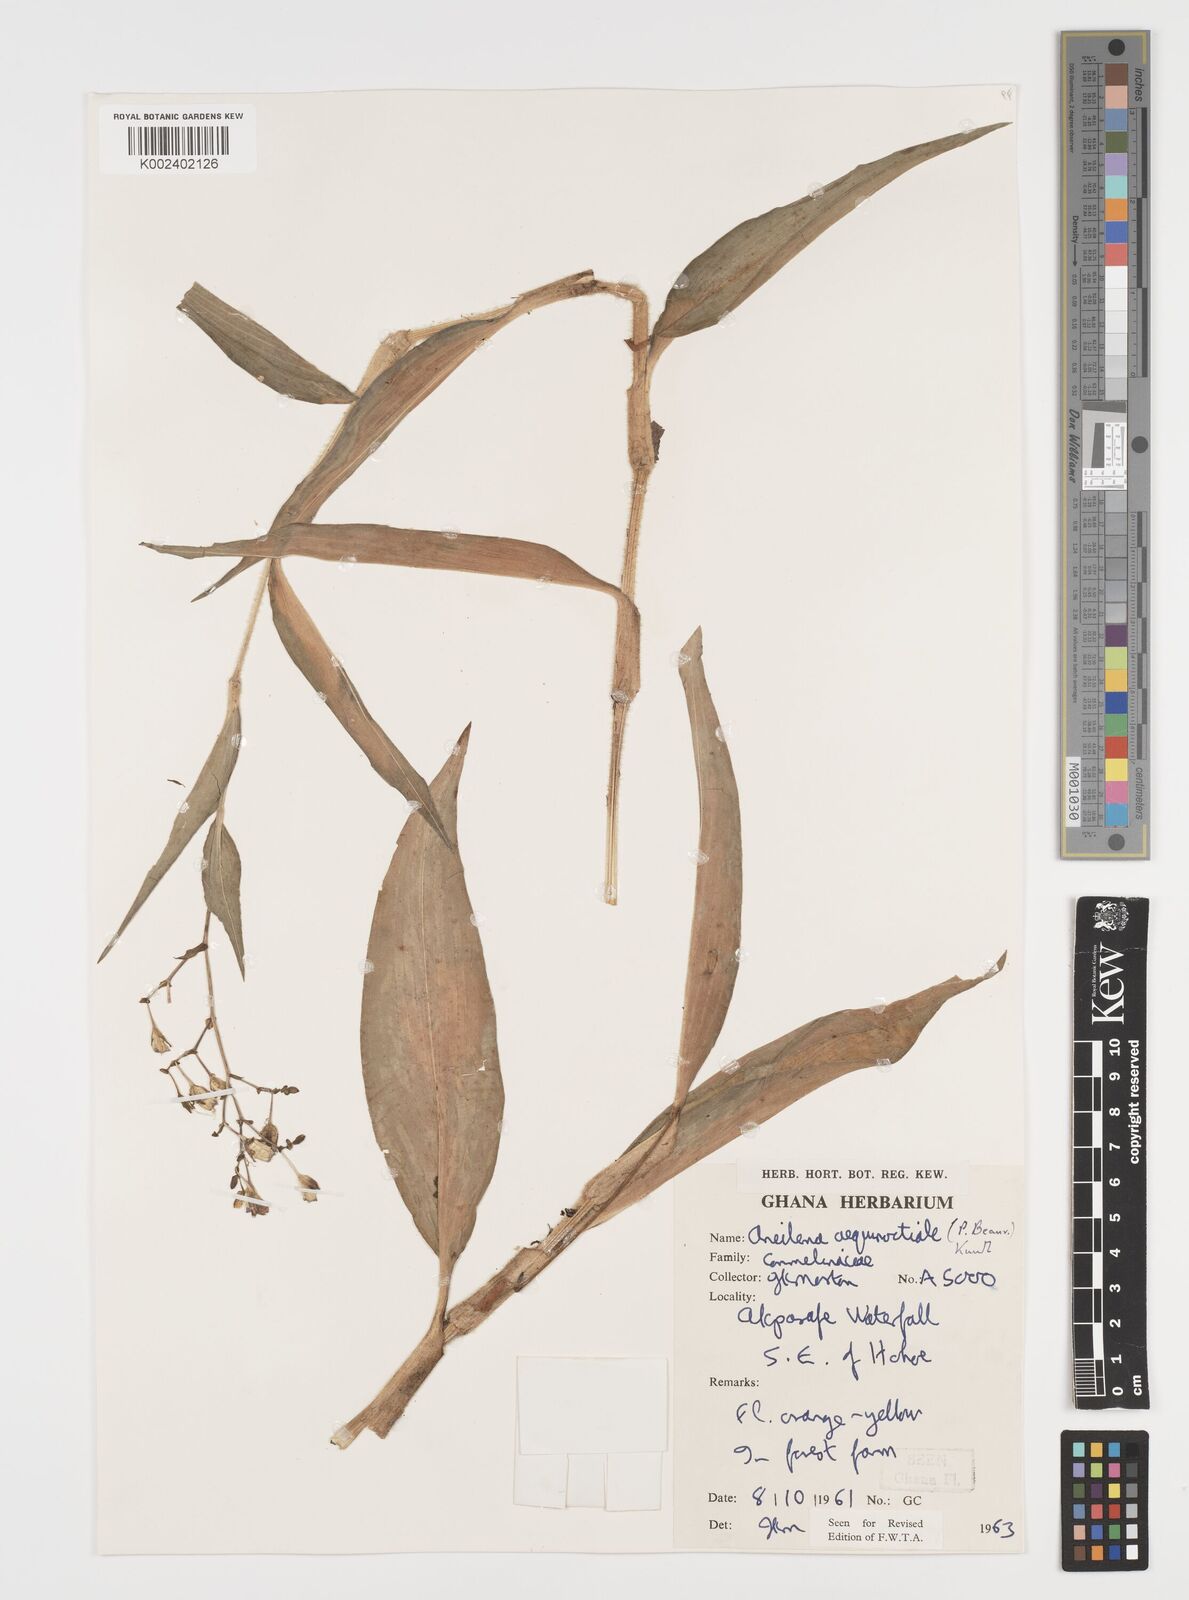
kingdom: Plantae
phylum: Tracheophyta
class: Liliopsida
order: Commelinales
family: Commelinaceae
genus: Aneilema
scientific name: Aneilema aequinoctiale
